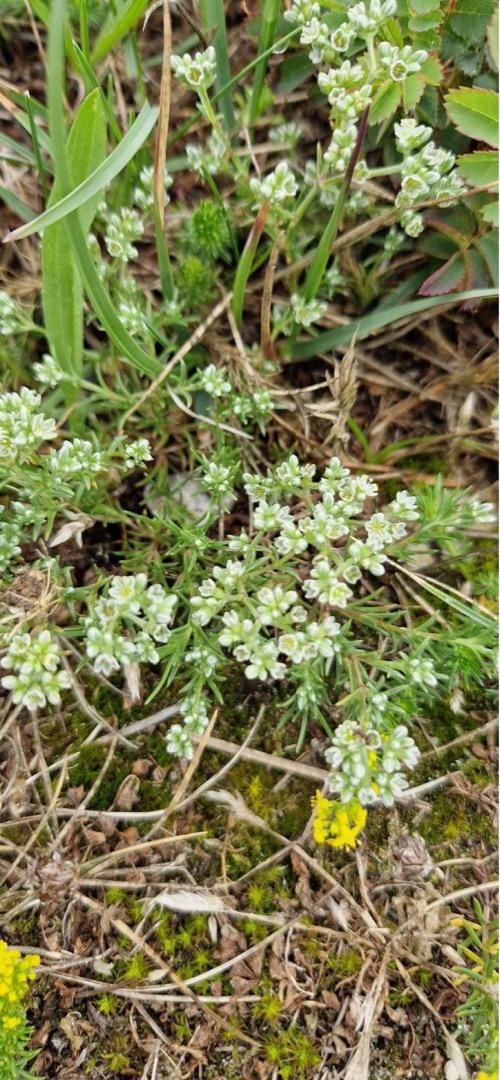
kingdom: Plantae
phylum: Tracheophyta
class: Magnoliopsida
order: Caryophyllales
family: Caryophyllaceae
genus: Scleranthus
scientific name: Scleranthus perennis
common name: Flerårig knavel
